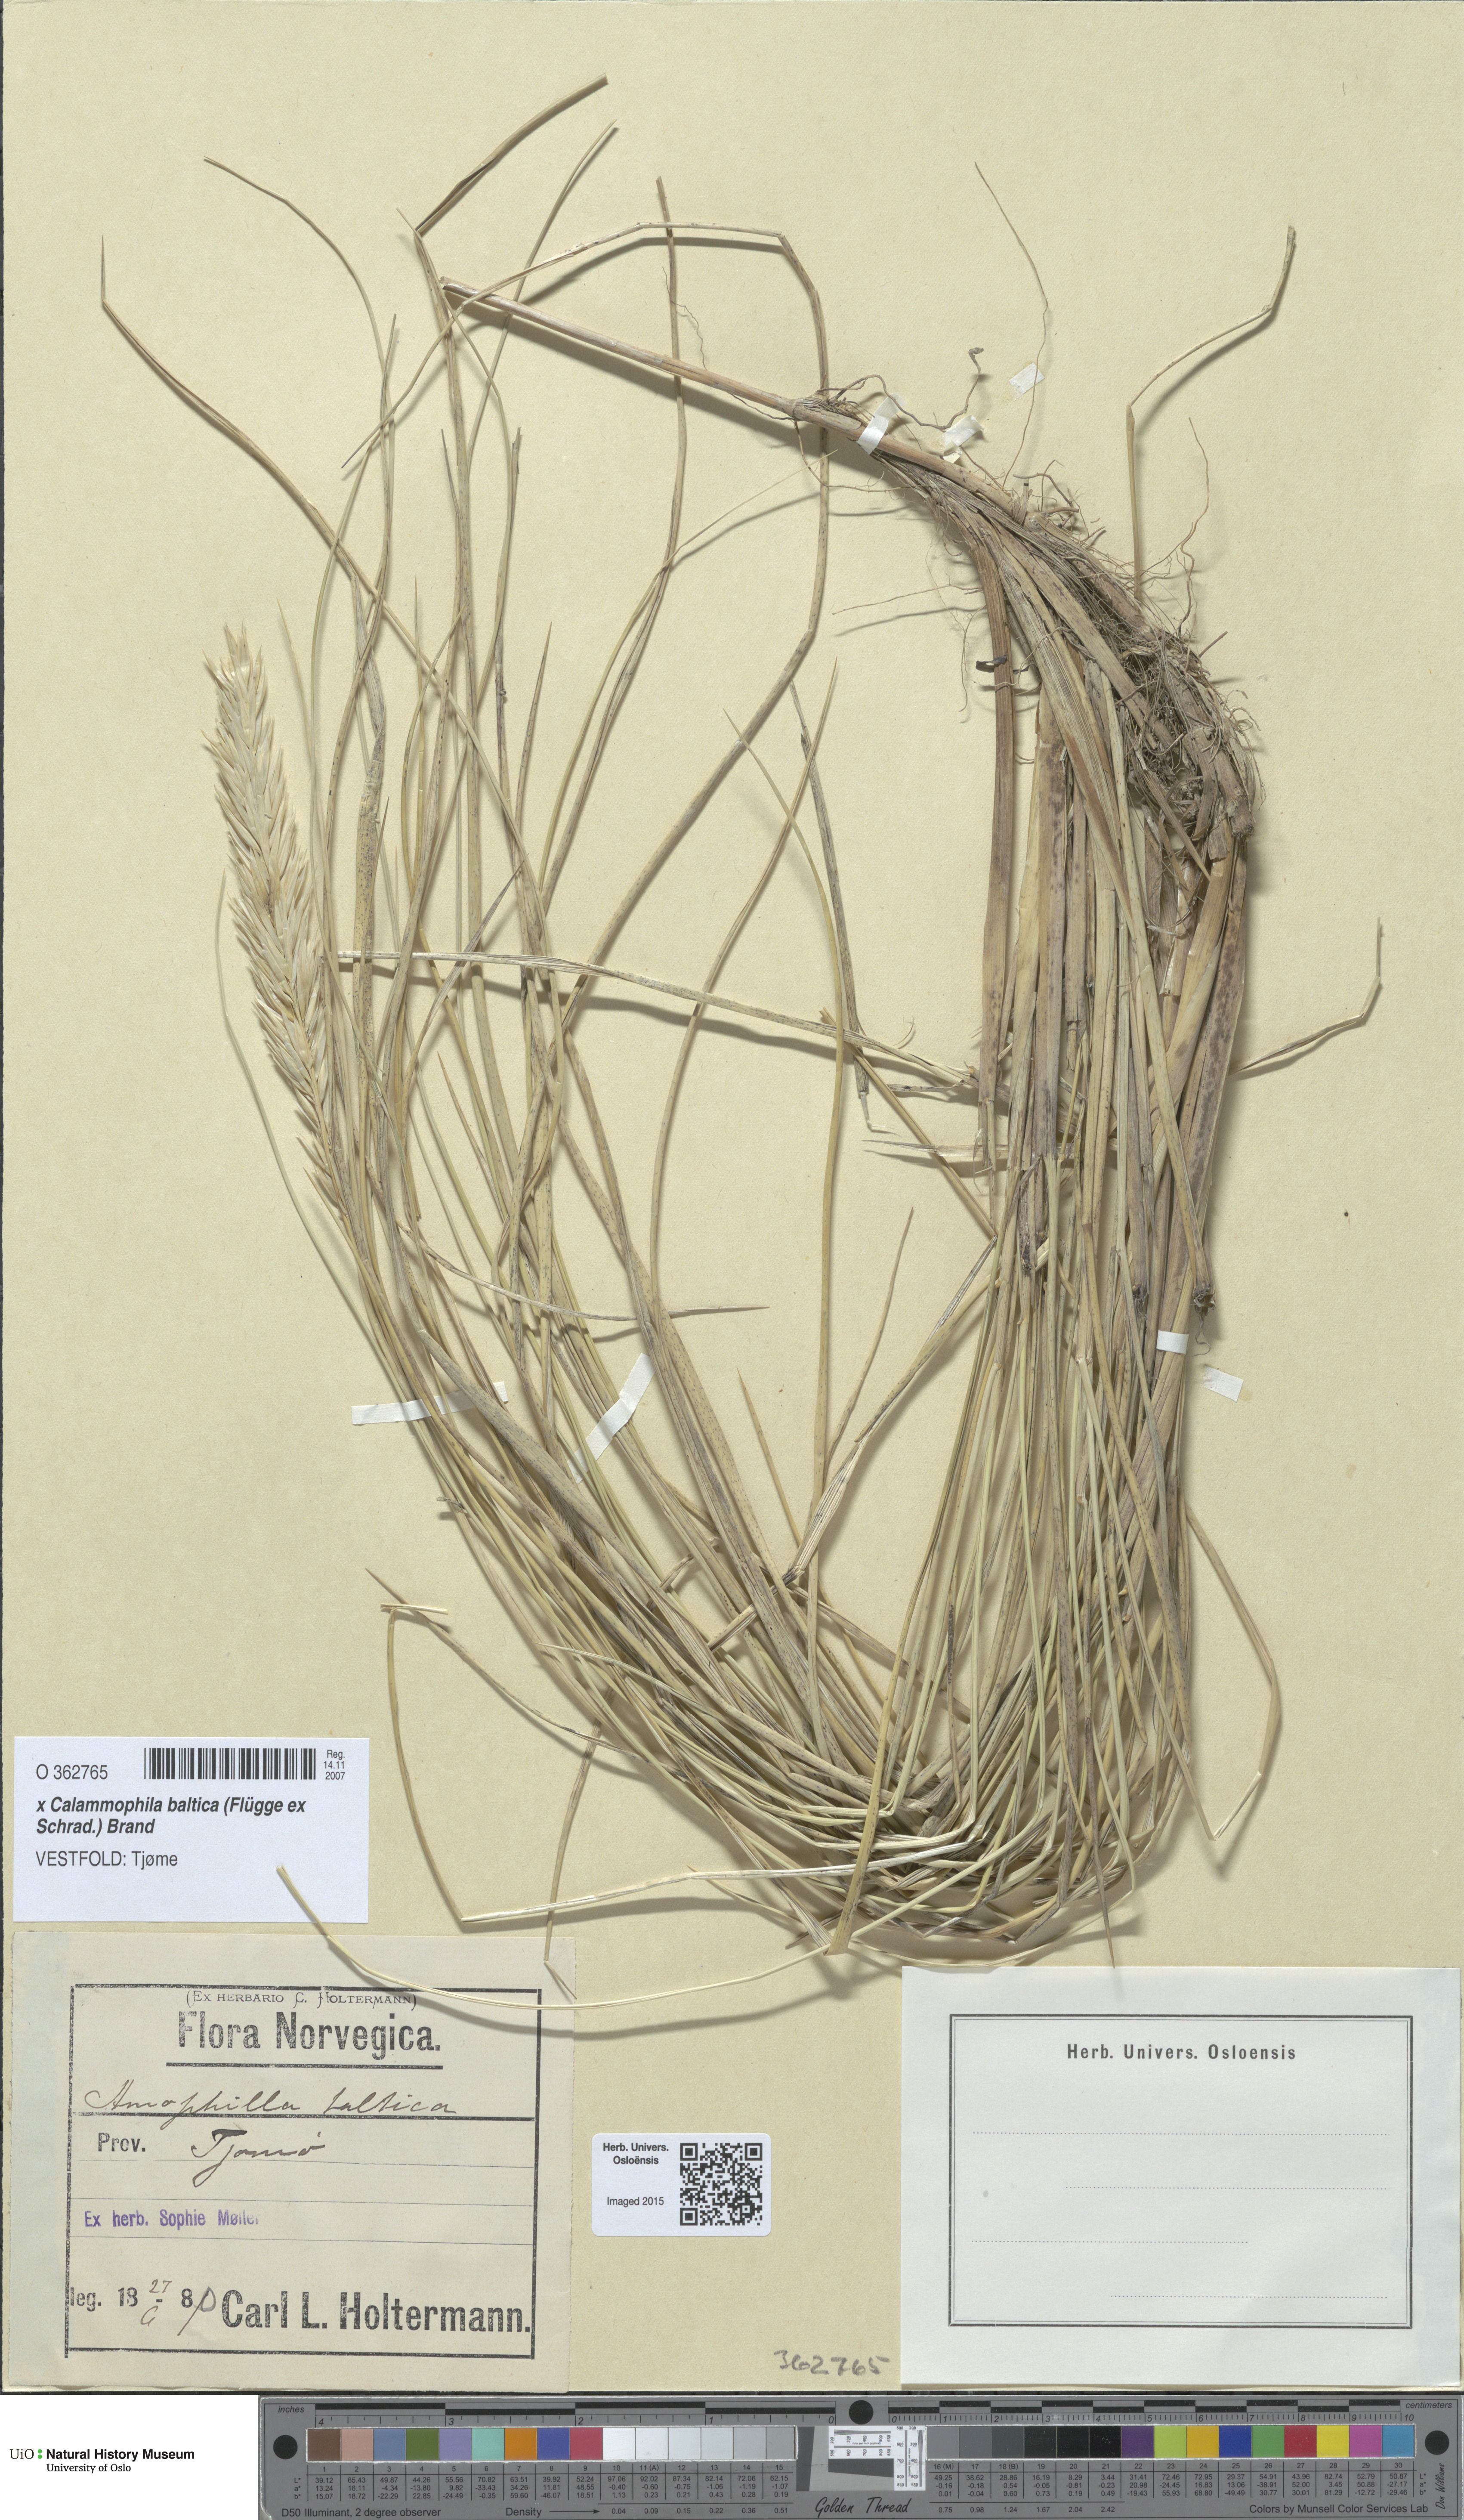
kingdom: Plantae
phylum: Tracheophyta
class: Liliopsida
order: Poales
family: Poaceae
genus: Calamagrostis
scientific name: Calamagrostis baltica
